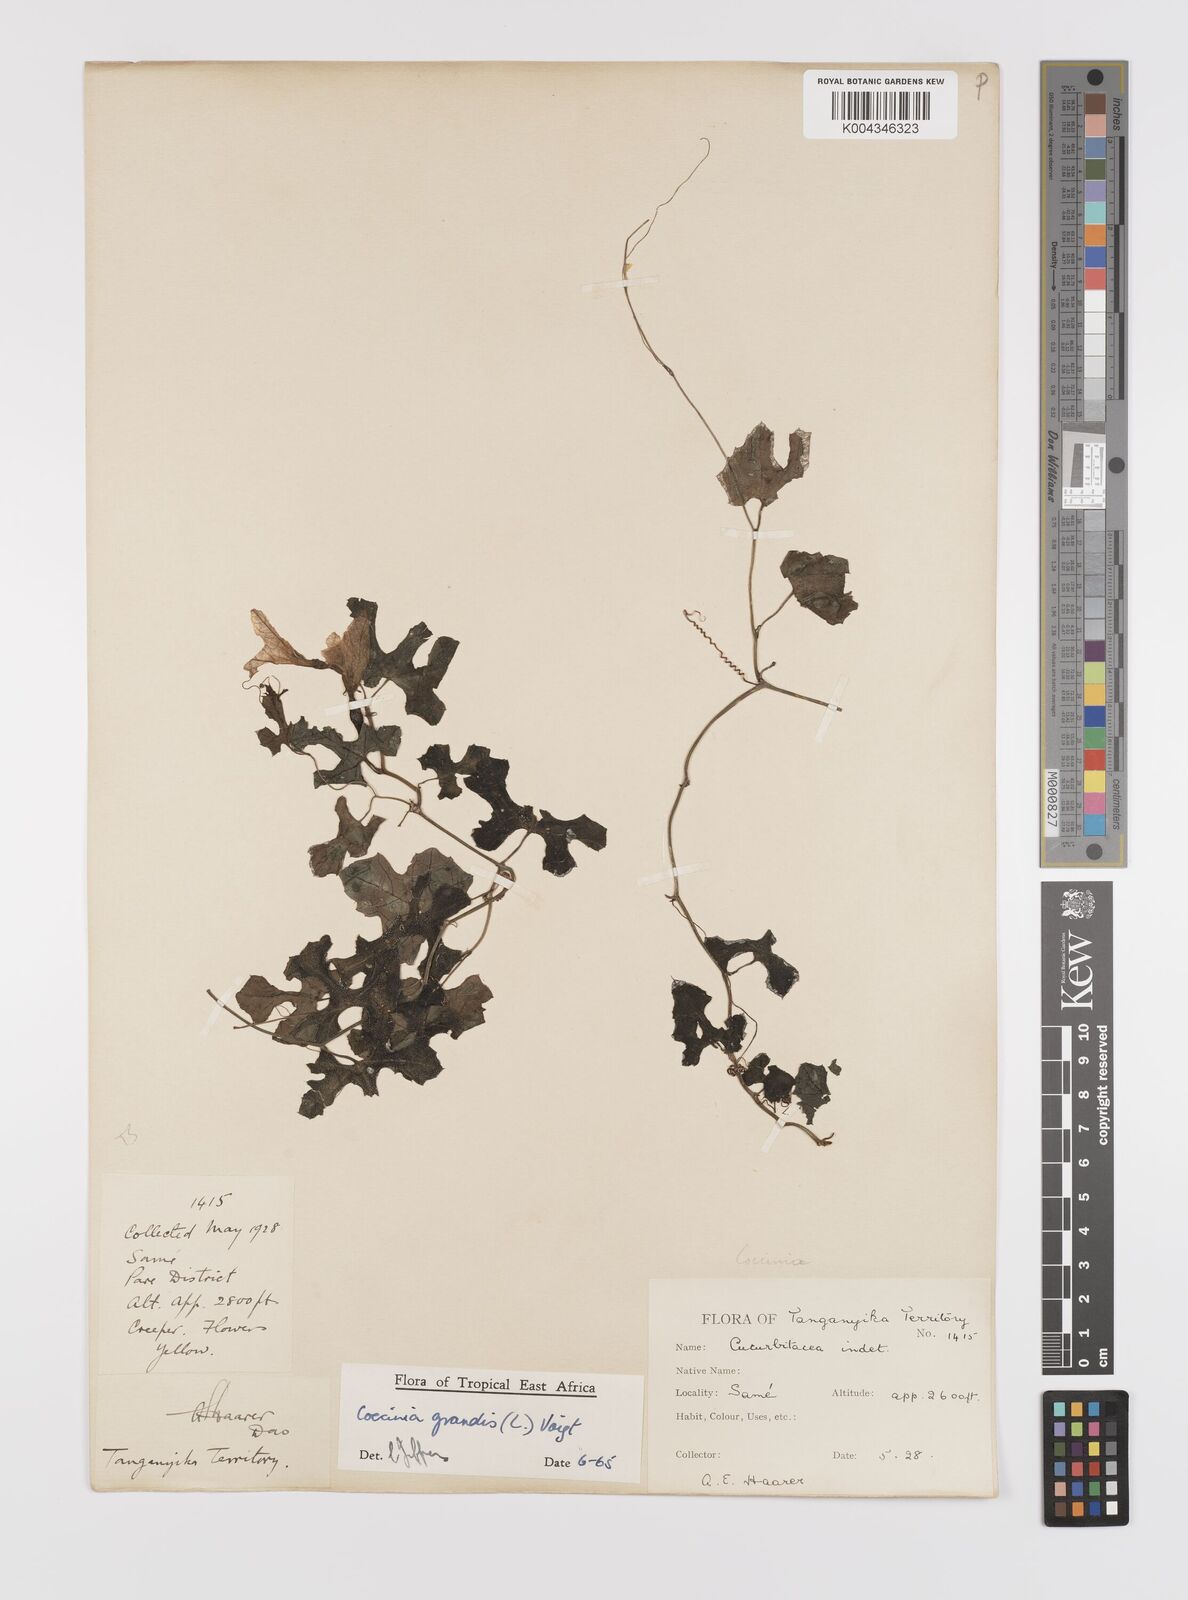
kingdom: Plantae
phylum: Tracheophyta
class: Magnoliopsida
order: Cucurbitales
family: Cucurbitaceae
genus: Coccinia
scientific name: Coccinia grandis
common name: Ivy gourd
